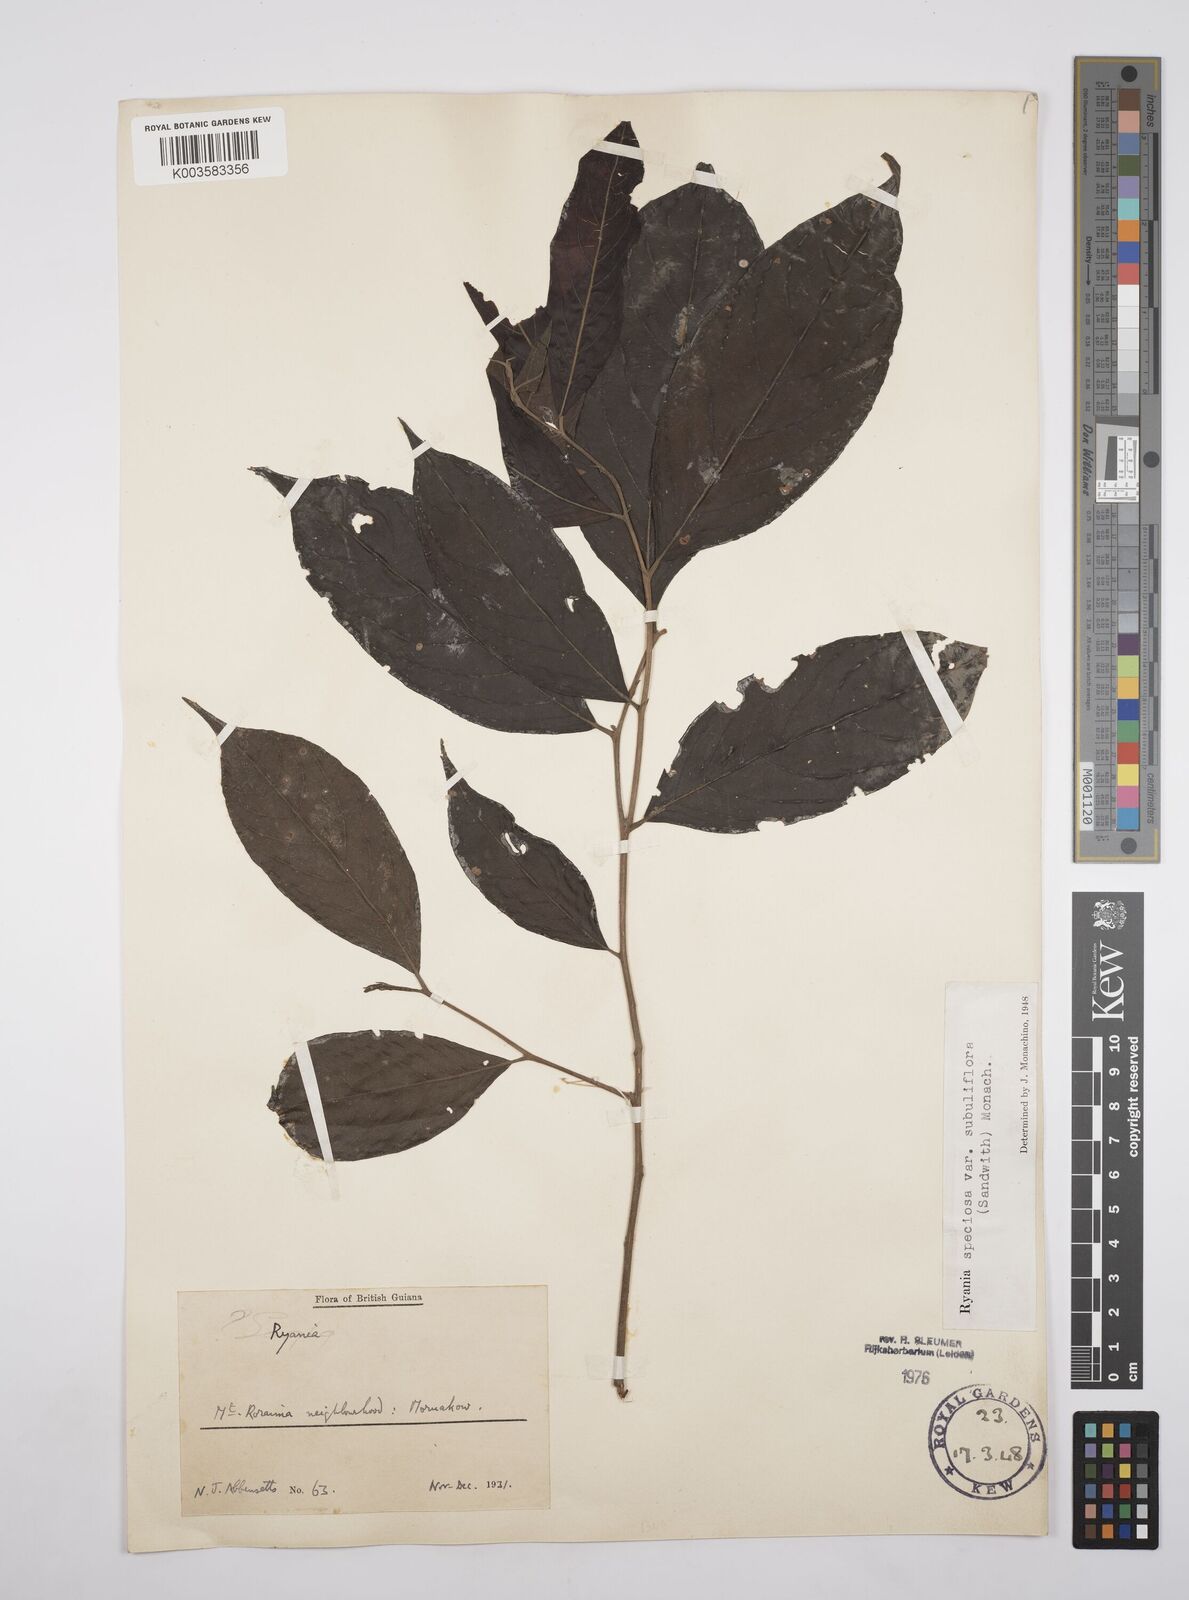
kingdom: Plantae
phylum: Tracheophyta
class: Magnoliopsida
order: Malpighiales
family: Salicaceae
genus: Ryania
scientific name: Ryania speciosa
